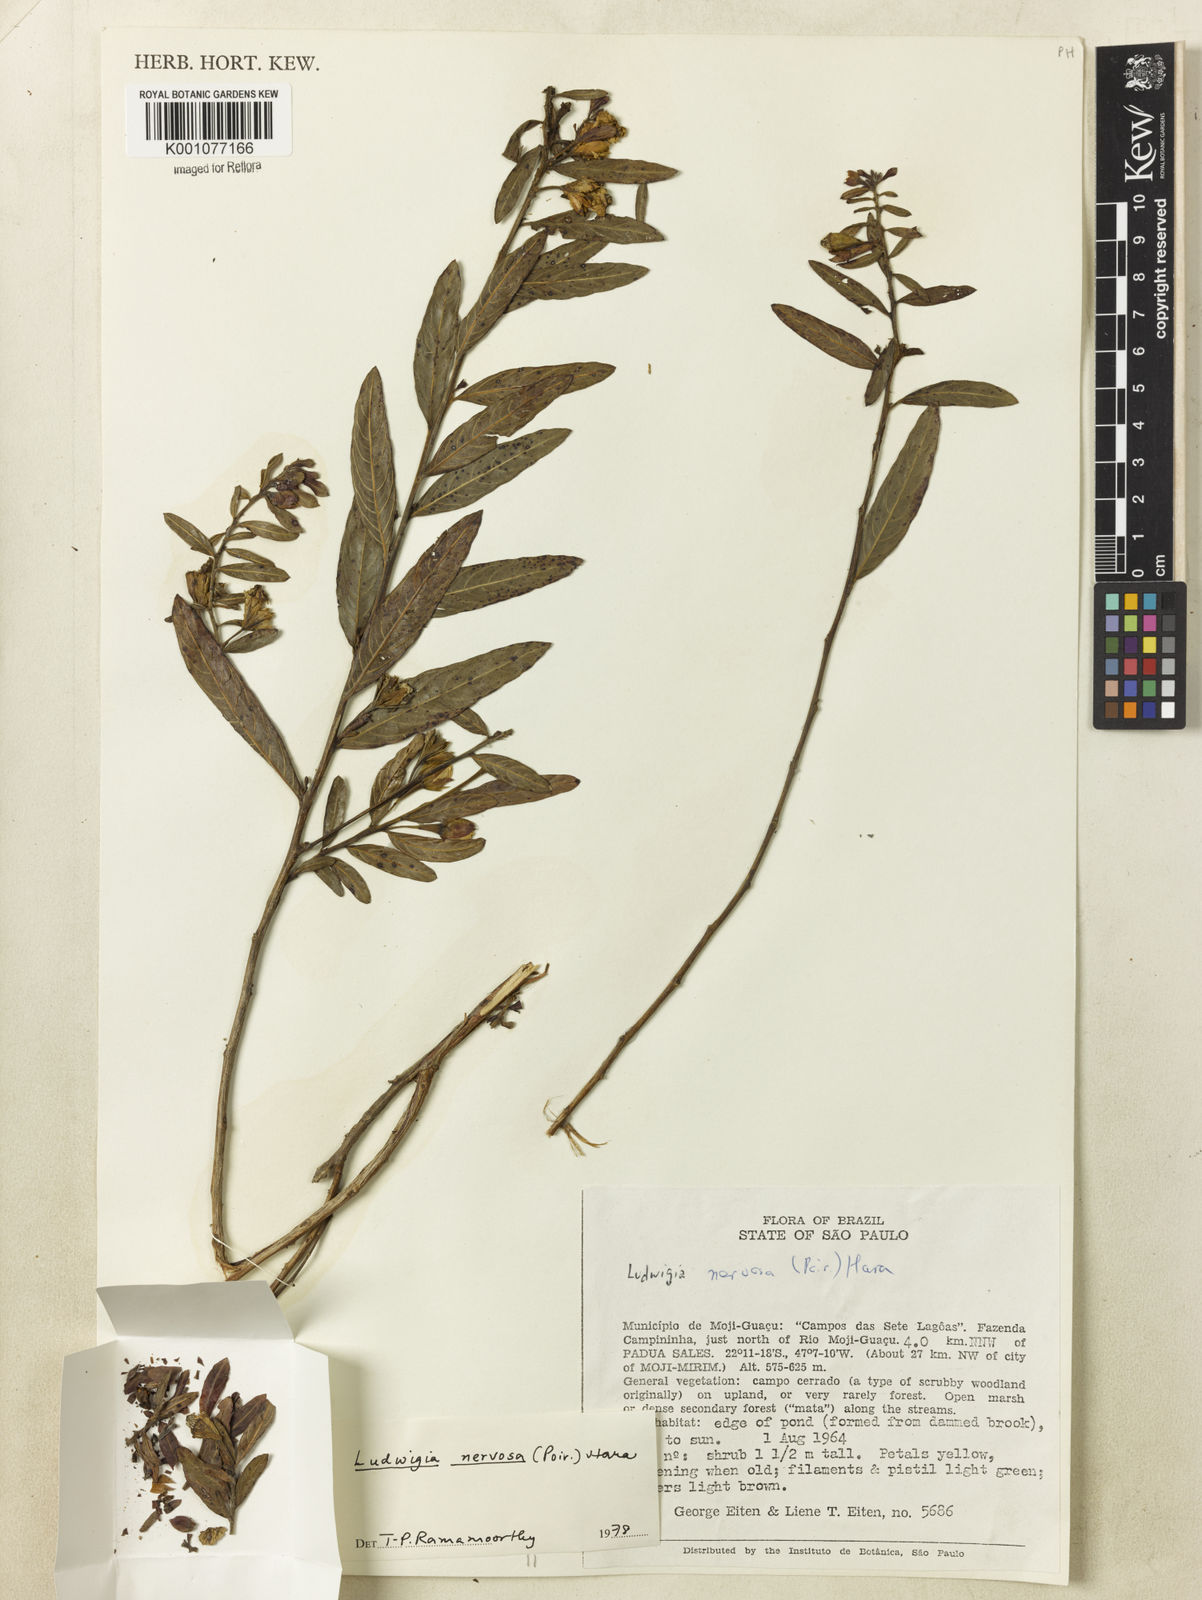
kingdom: Plantae
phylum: Tracheophyta
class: Magnoliopsida
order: Myrtales
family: Onagraceae
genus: Ludwigia
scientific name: Ludwigia nervosa
